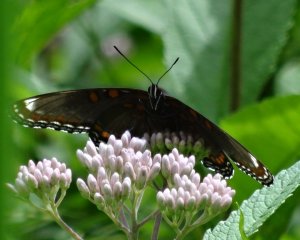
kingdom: Animalia
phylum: Arthropoda
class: Insecta
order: Lepidoptera
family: Nymphalidae
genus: Limenitis
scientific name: Limenitis astyanax
